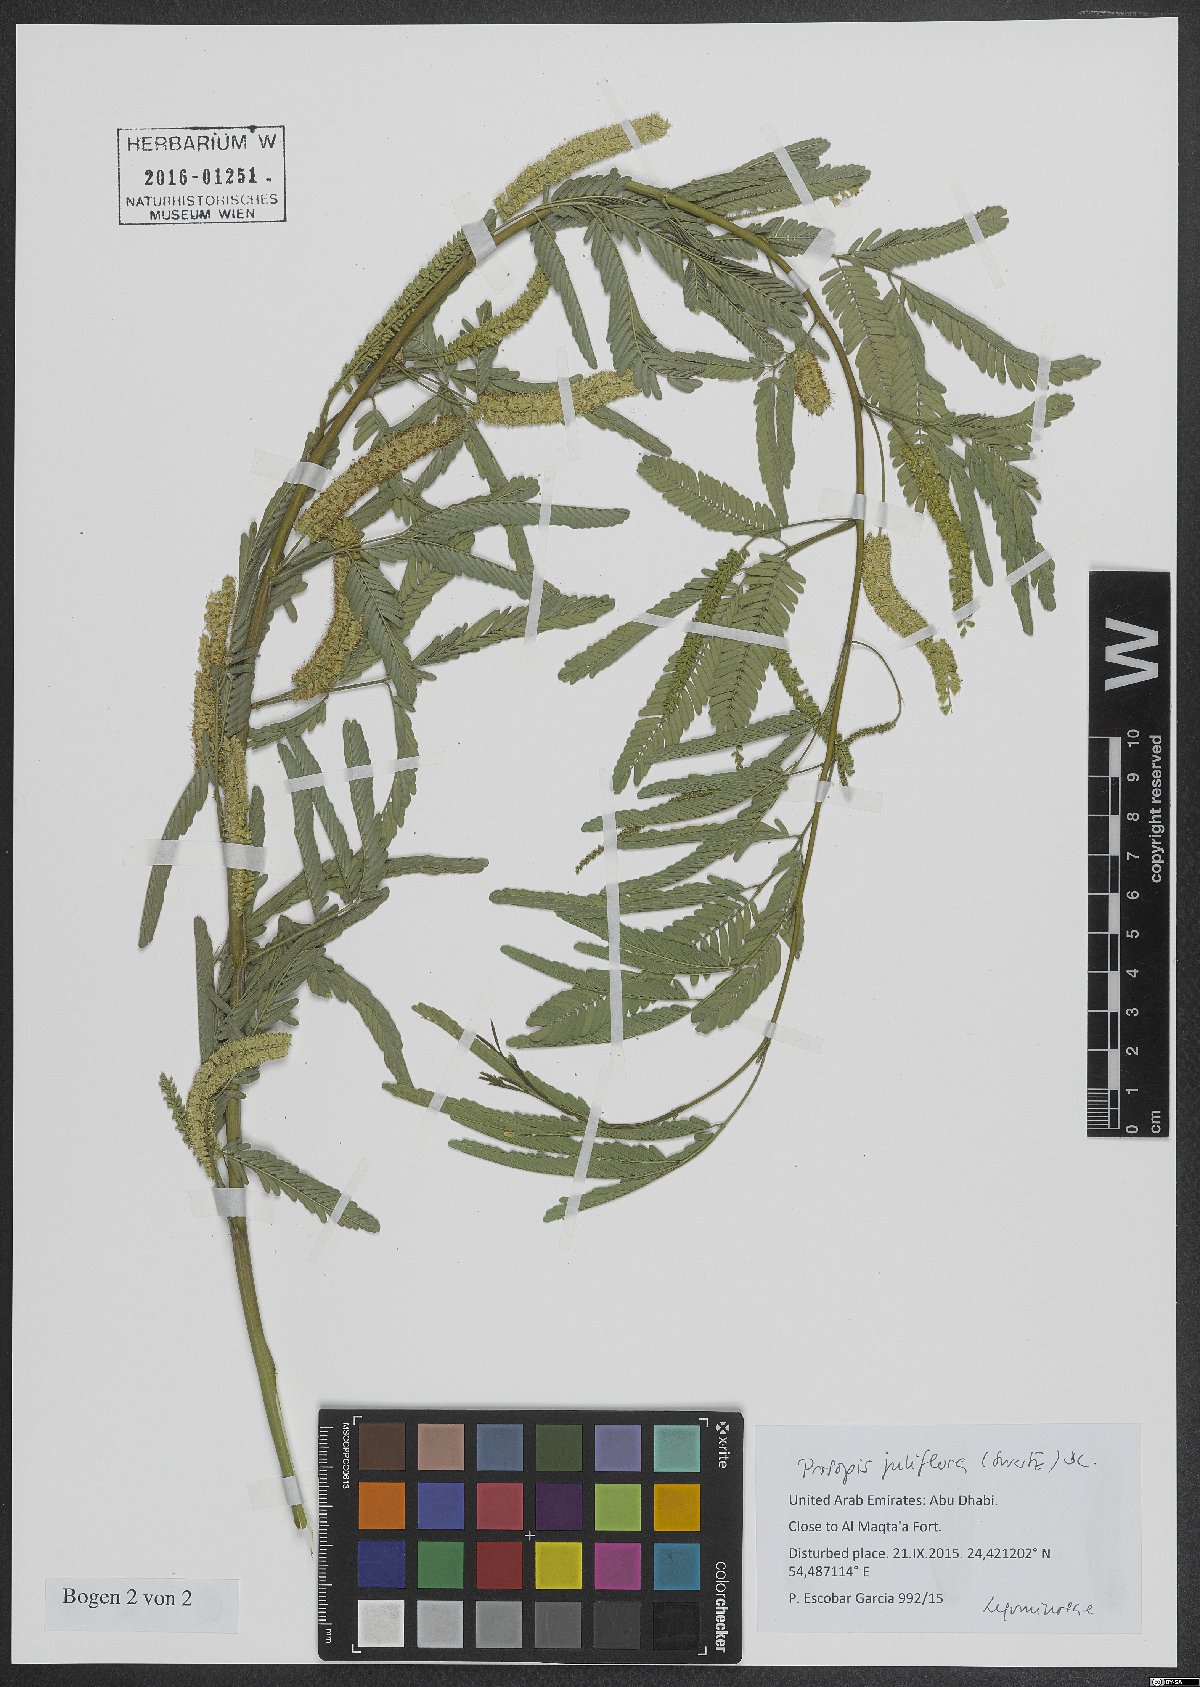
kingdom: Plantae
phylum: Tracheophyta
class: Magnoliopsida
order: Fabales
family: Fabaceae
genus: Prosopis
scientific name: Prosopis juliflora
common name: Mesquite
